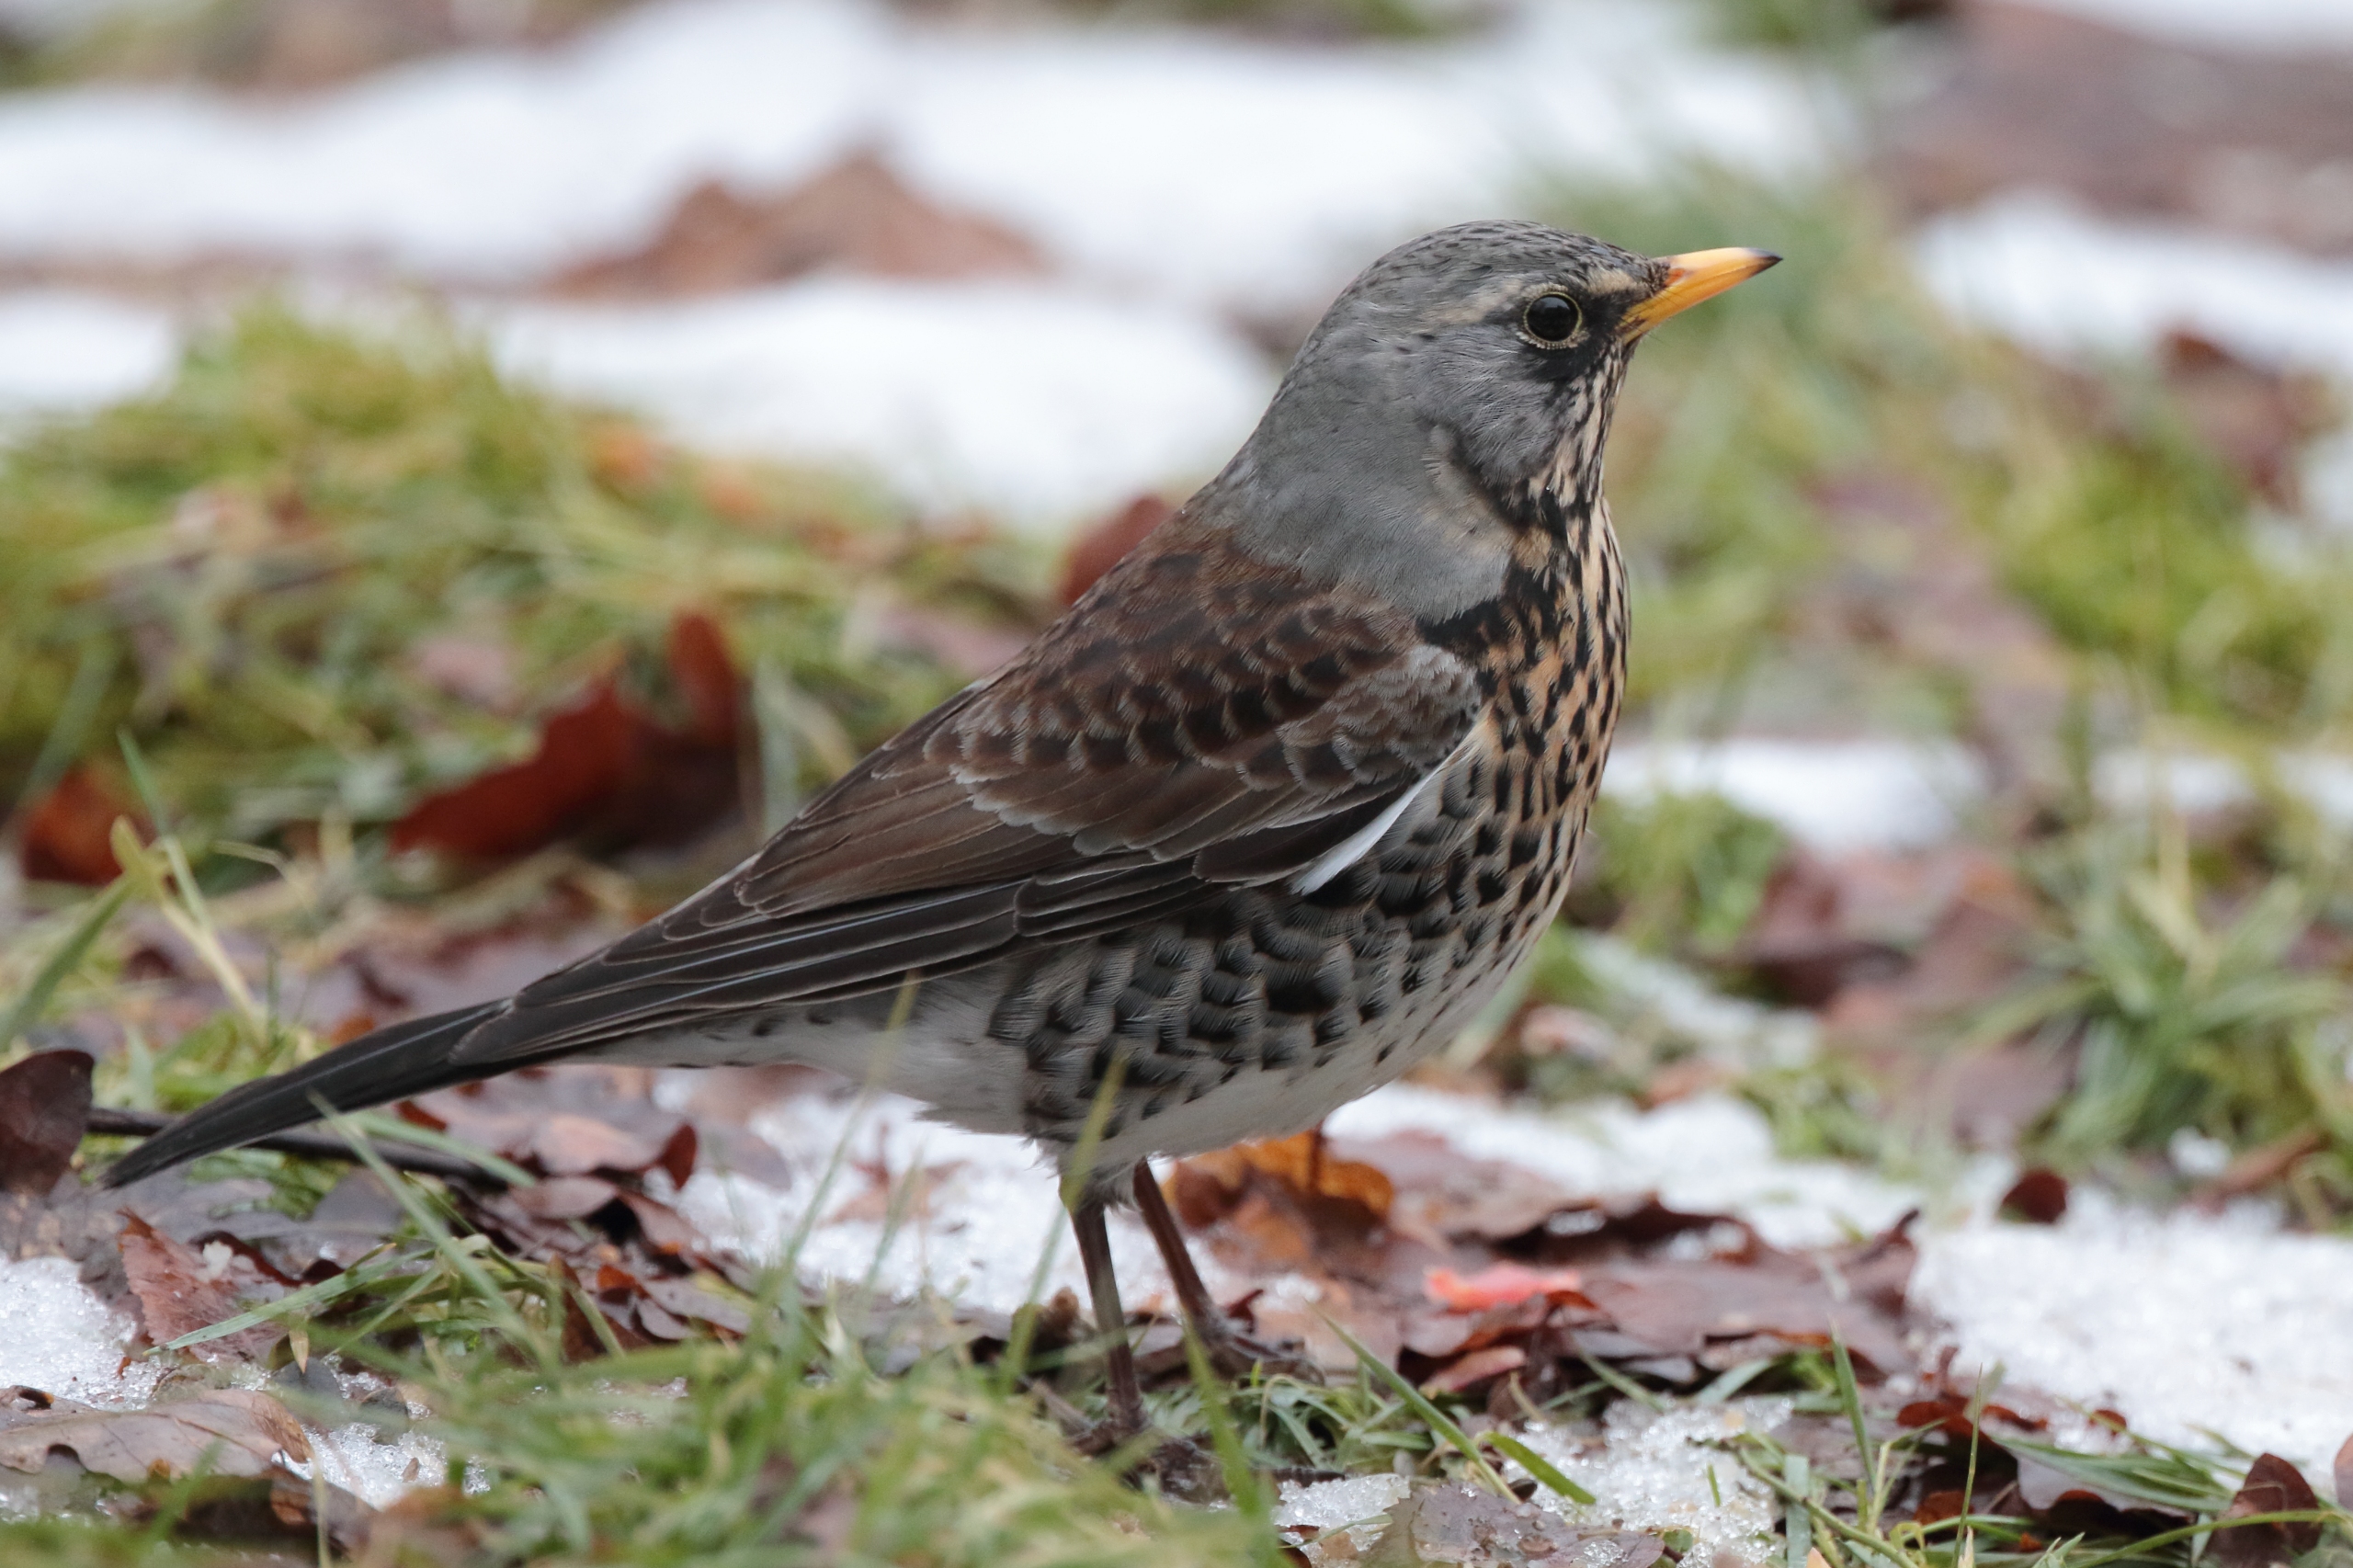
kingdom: Animalia
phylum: Chordata
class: Aves
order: Passeriformes
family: Turdidae
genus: Turdus
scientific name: Turdus pilaris
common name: Sjagger
